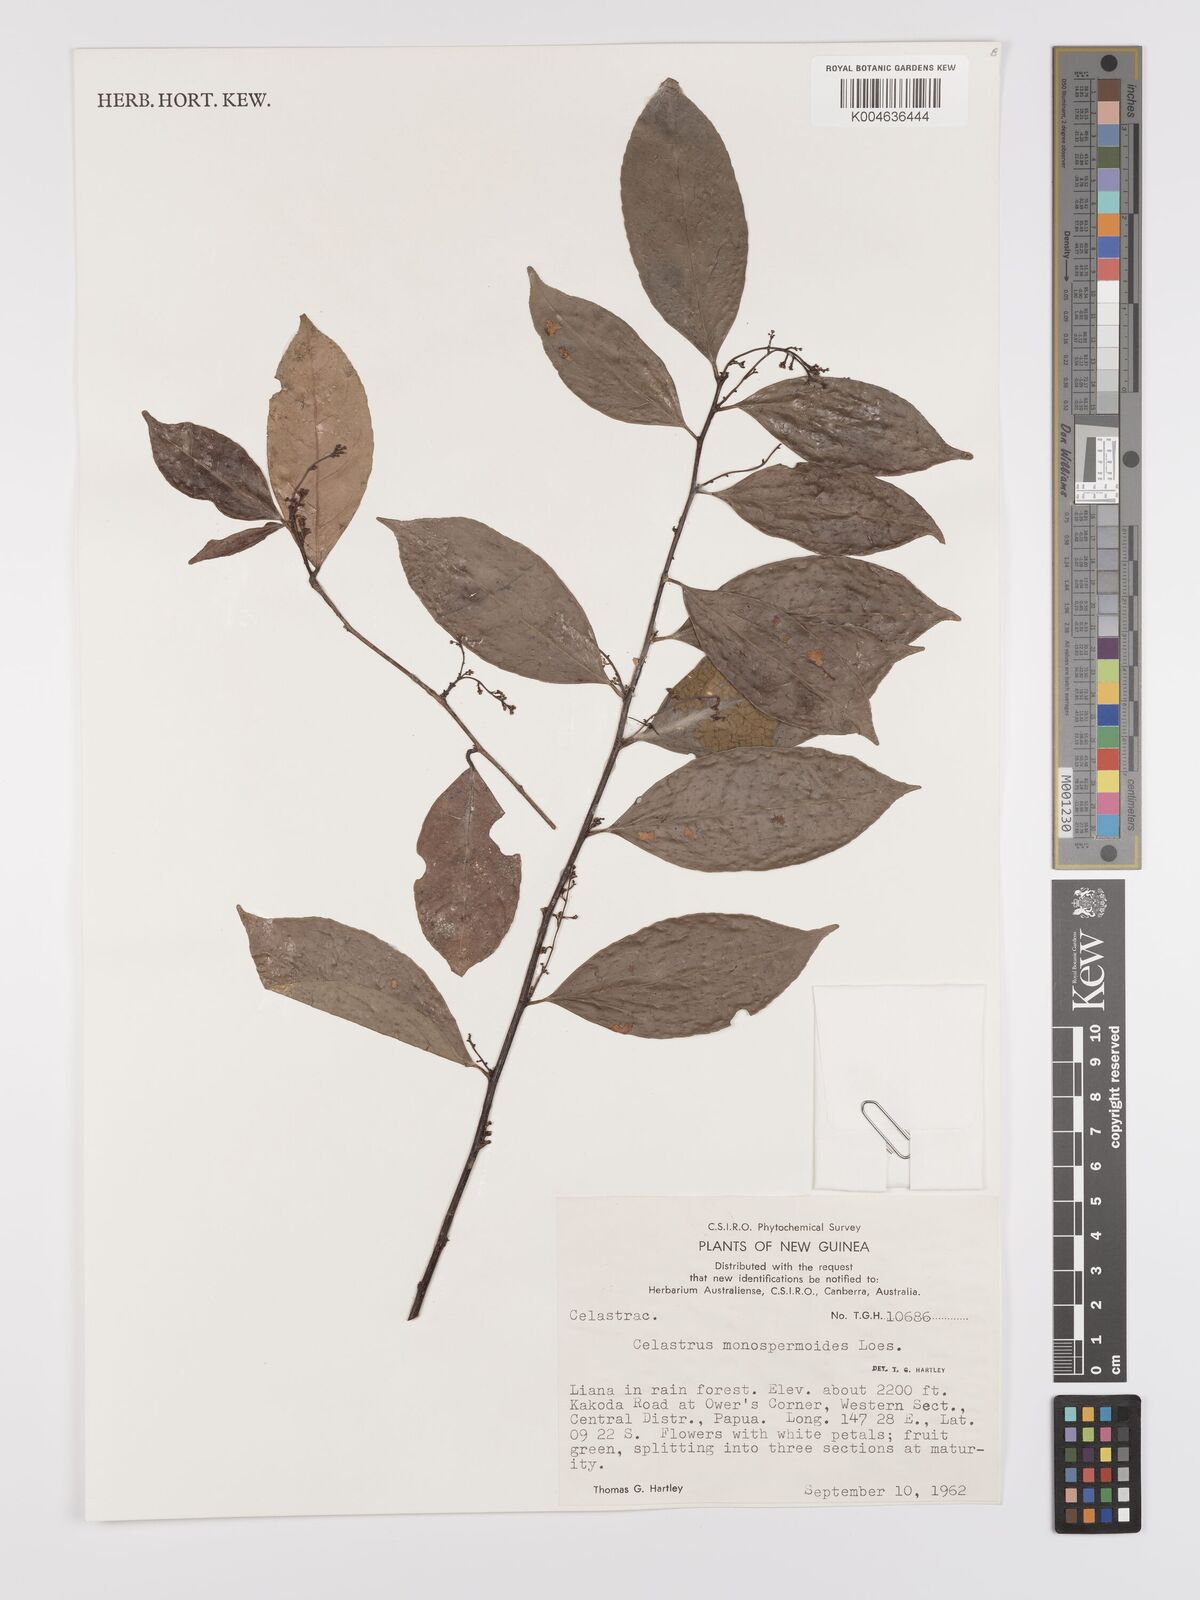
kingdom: Plantae
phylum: Tracheophyta
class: Magnoliopsida
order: Celastrales
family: Celastraceae
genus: Celastrus
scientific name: Celastrus monospermoides
